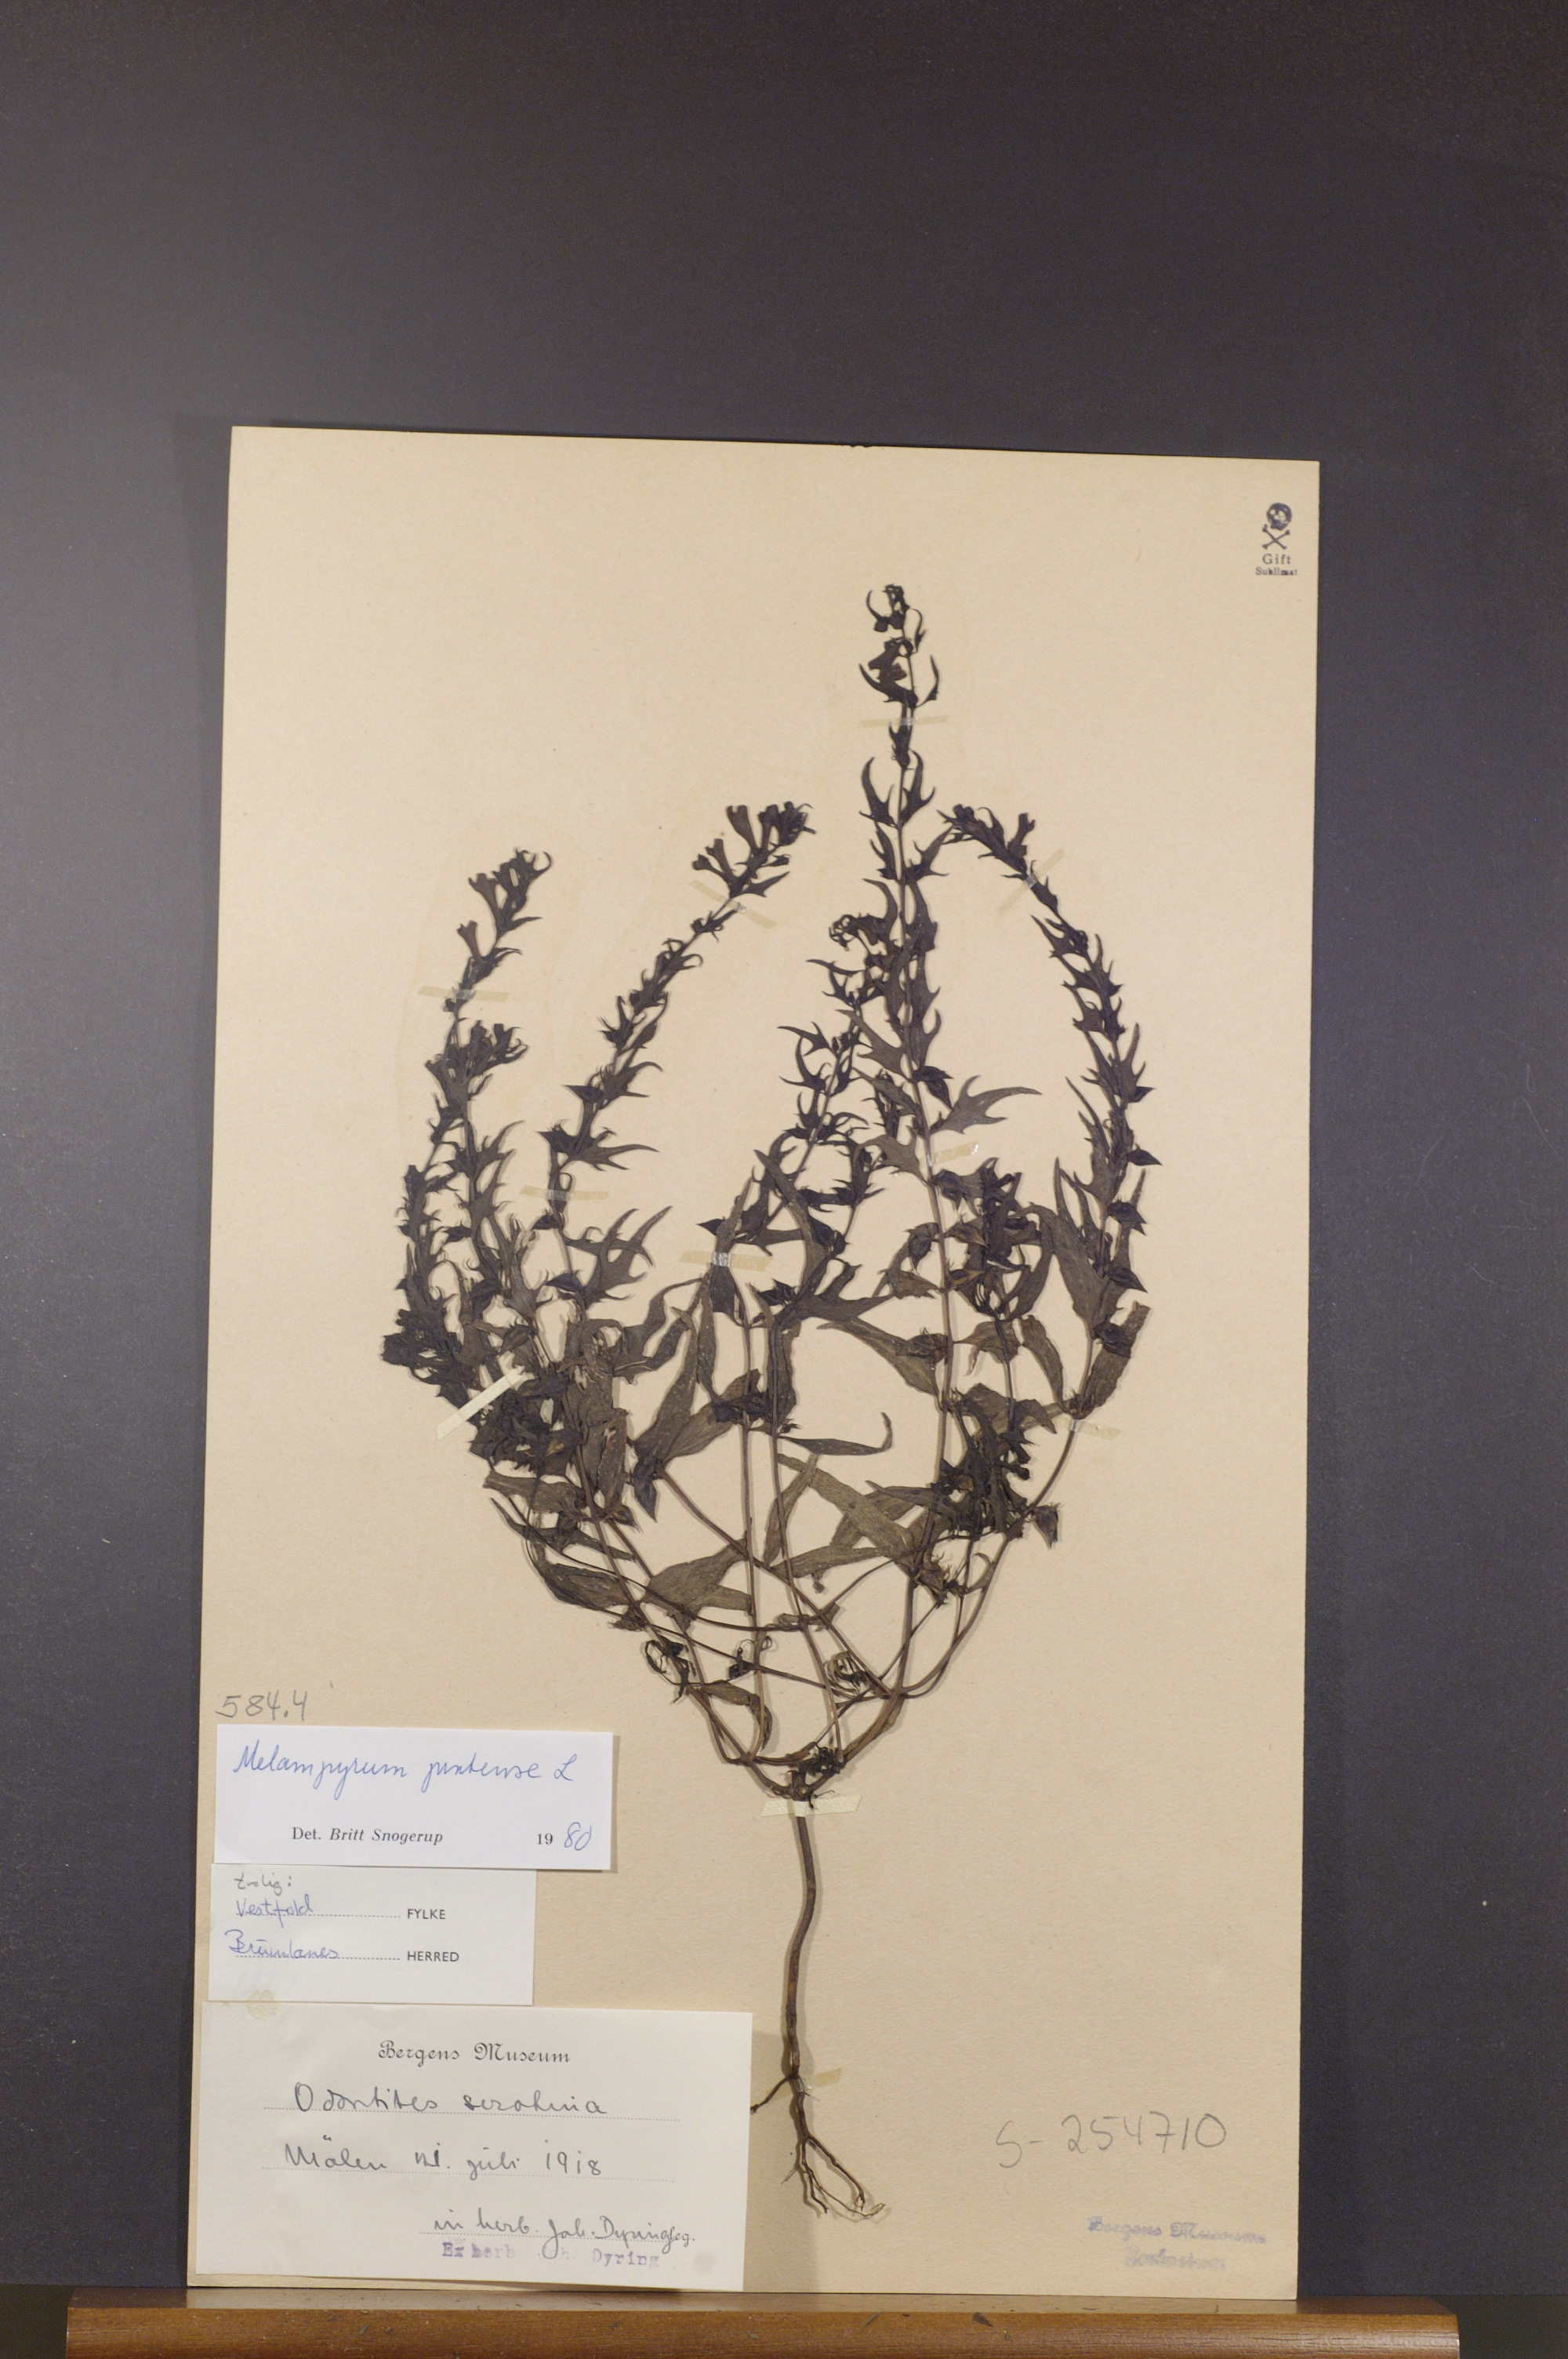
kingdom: Plantae
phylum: Tracheophyta
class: Magnoliopsida
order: Lamiales
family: Orobanchaceae
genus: Melampyrum
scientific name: Melampyrum pratense
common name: Common cow-wheat
